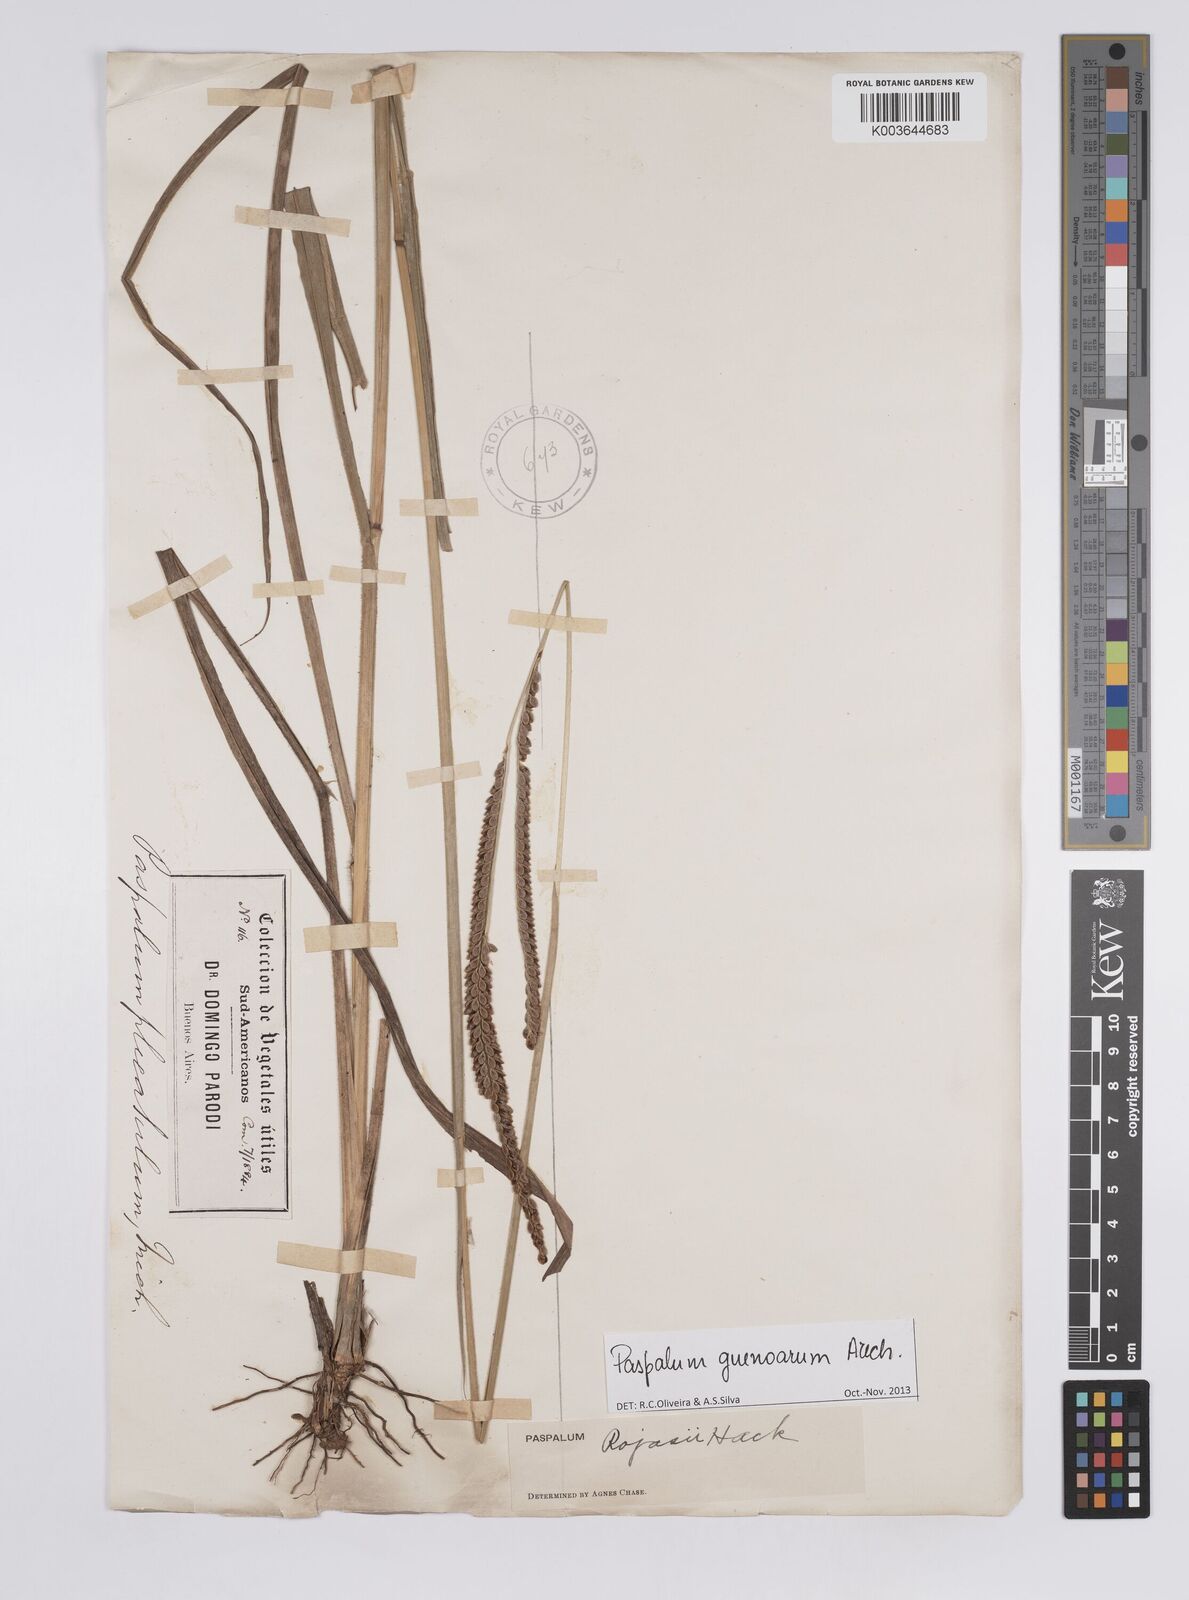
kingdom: Plantae
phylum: Tracheophyta
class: Liliopsida
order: Poales
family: Poaceae
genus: Paspalum
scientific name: Paspalum guenoarum
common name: Wintergreen paspalum
